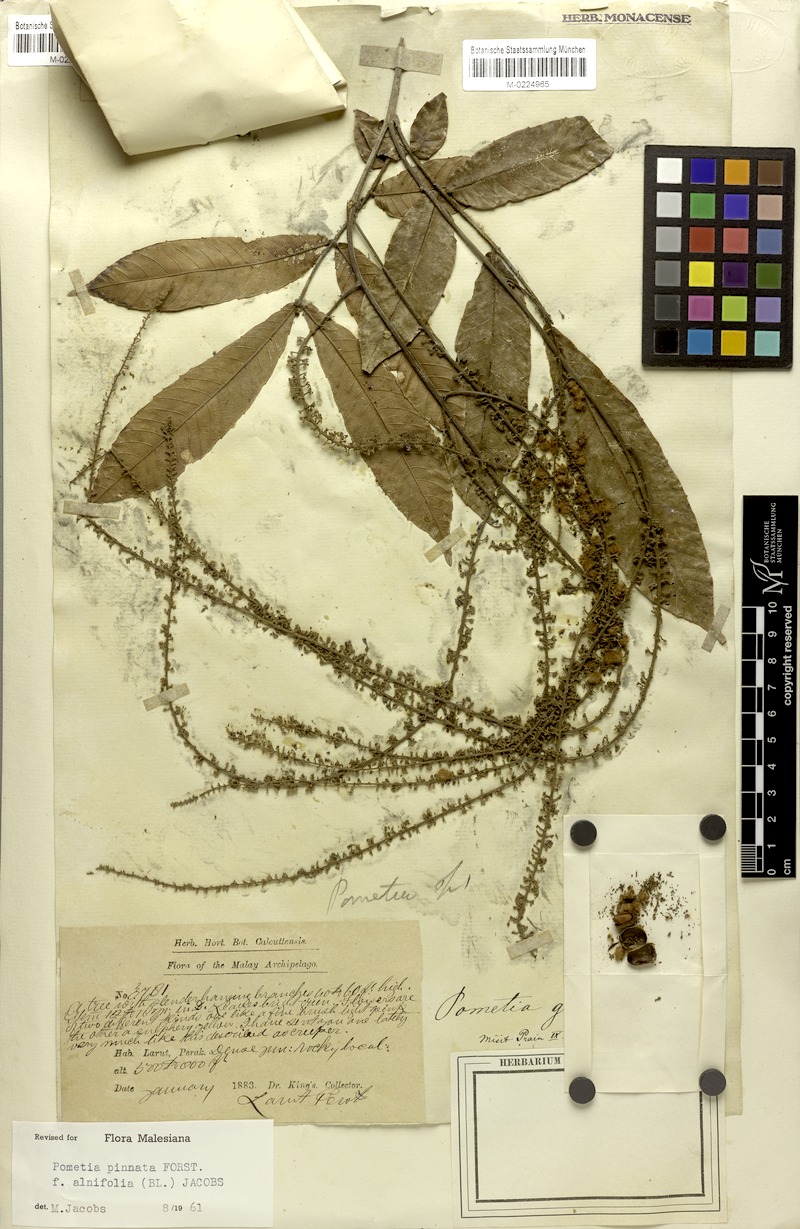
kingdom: Plantae
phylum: Tracheophyta
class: Magnoliopsida
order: Sapindales
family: Sapindaceae
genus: Pometia
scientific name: Pometia pinnata
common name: Oceanic lychee
